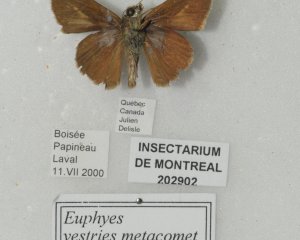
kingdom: Animalia
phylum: Arthropoda
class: Insecta
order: Lepidoptera
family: Hesperiidae
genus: Euphyes
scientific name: Euphyes vestris
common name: Dun Skipper
